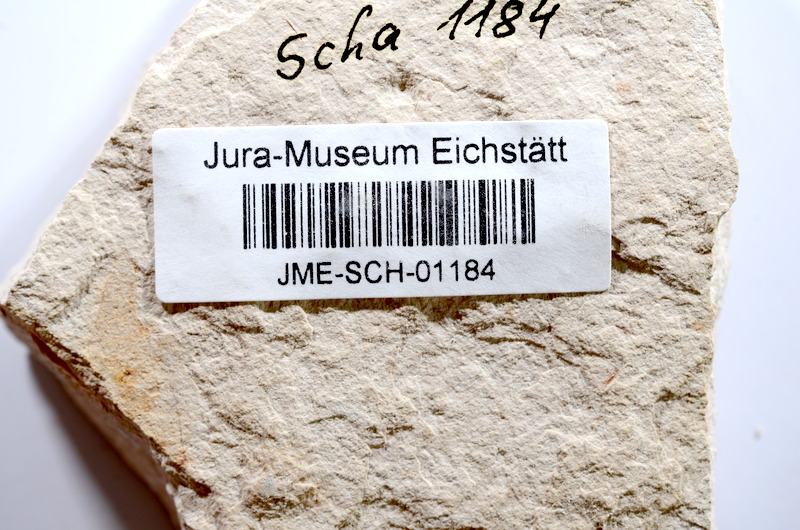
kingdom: Animalia
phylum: Chordata
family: Ascalaboidae
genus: Tharsis
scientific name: Tharsis dubius
